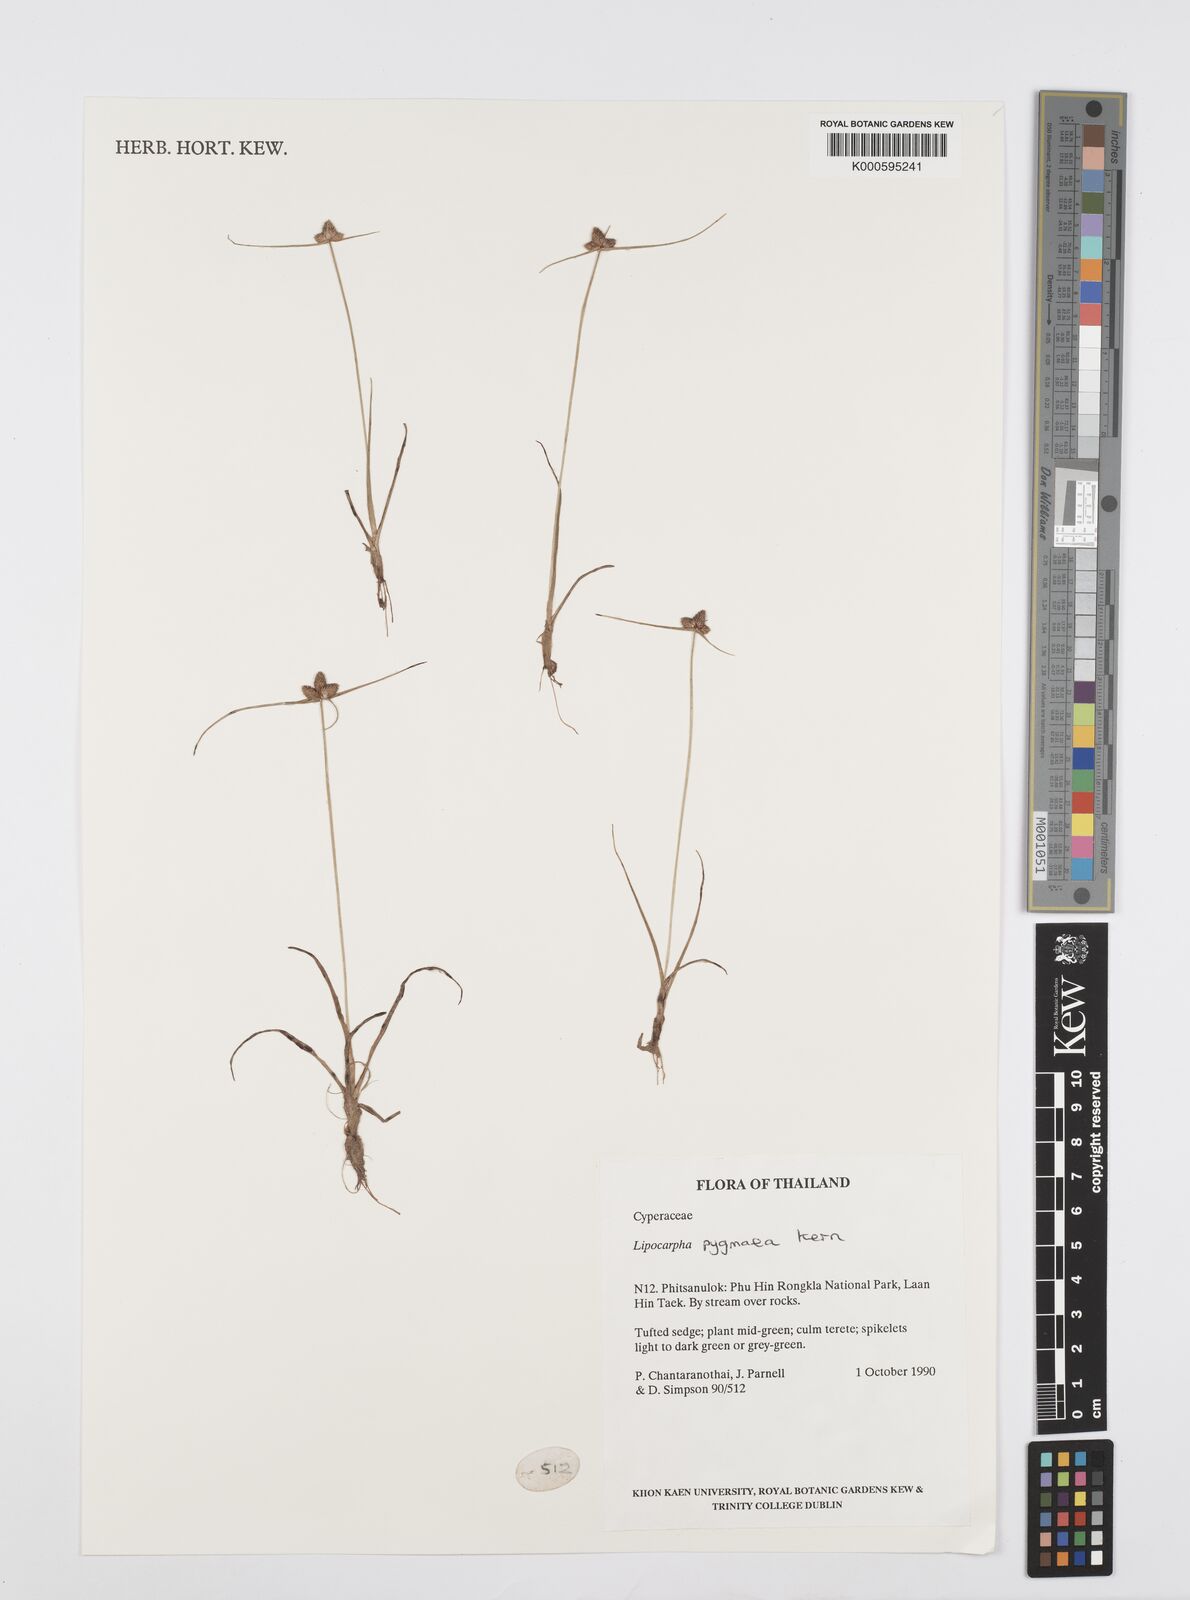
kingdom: Plantae
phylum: Tracheophyta
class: Liliopsida
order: Poales
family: Cyperaceae
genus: Cyperus
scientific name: Cyperus lipopygmaeus
